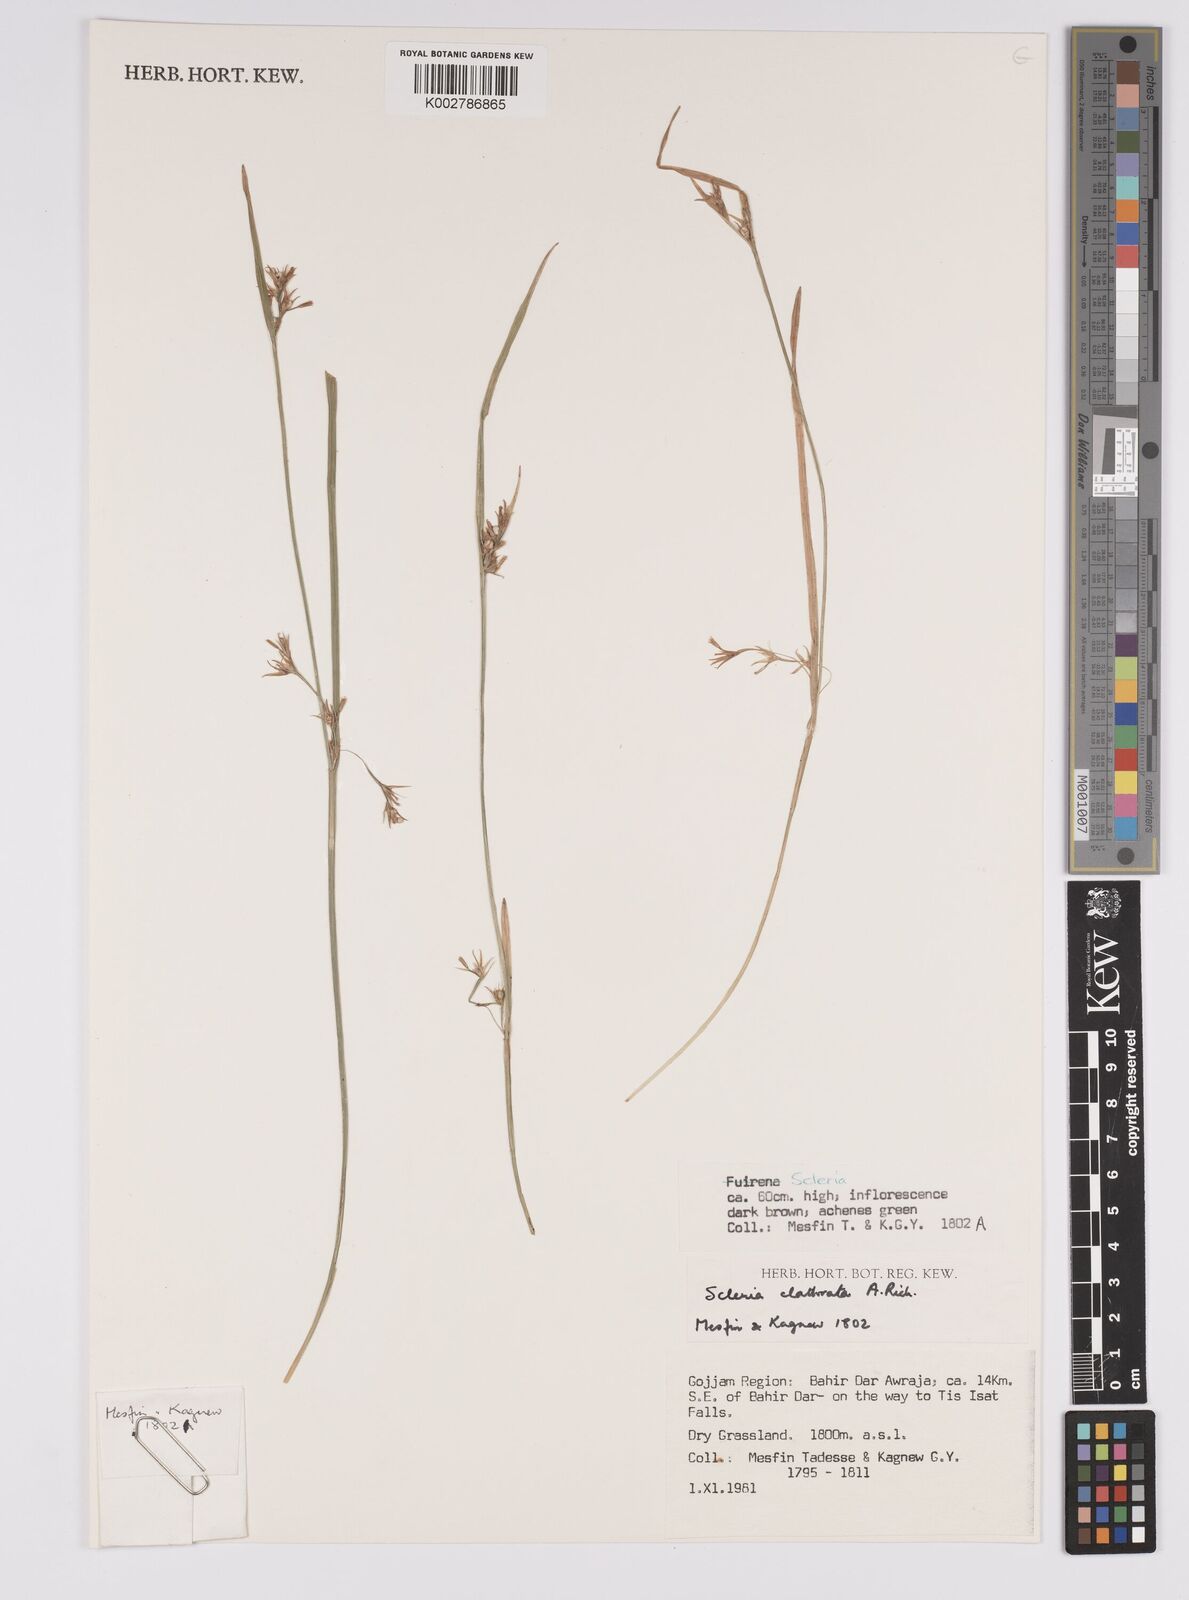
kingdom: Plantae
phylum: Tracheophyta
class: Liliopsida
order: Poales
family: Cyperaceae
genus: Scleria
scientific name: Scleria clathrata
